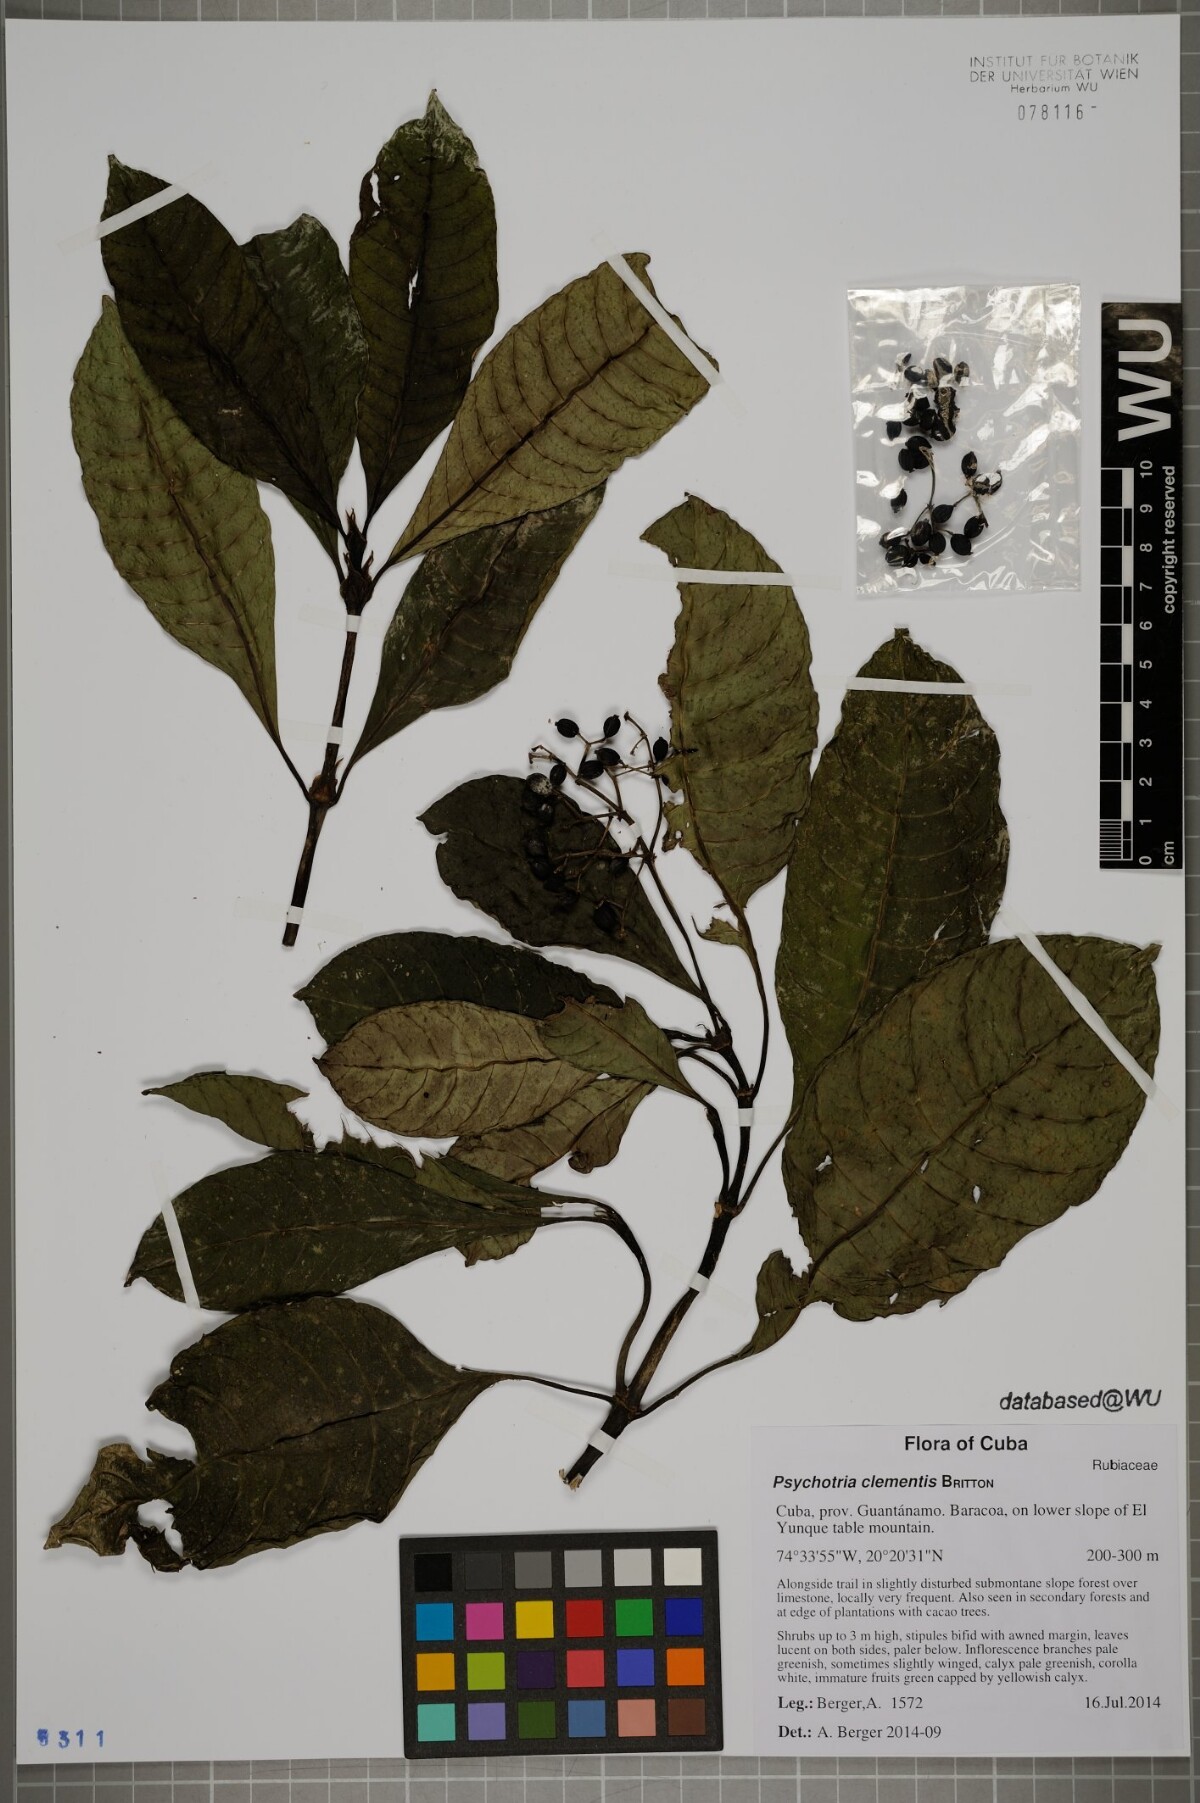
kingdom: Plantae
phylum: Tracheophyta
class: Magnoliopsida
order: Gentianales
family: Rubiaceae
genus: Psychotria
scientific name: Psychotria costivenia
